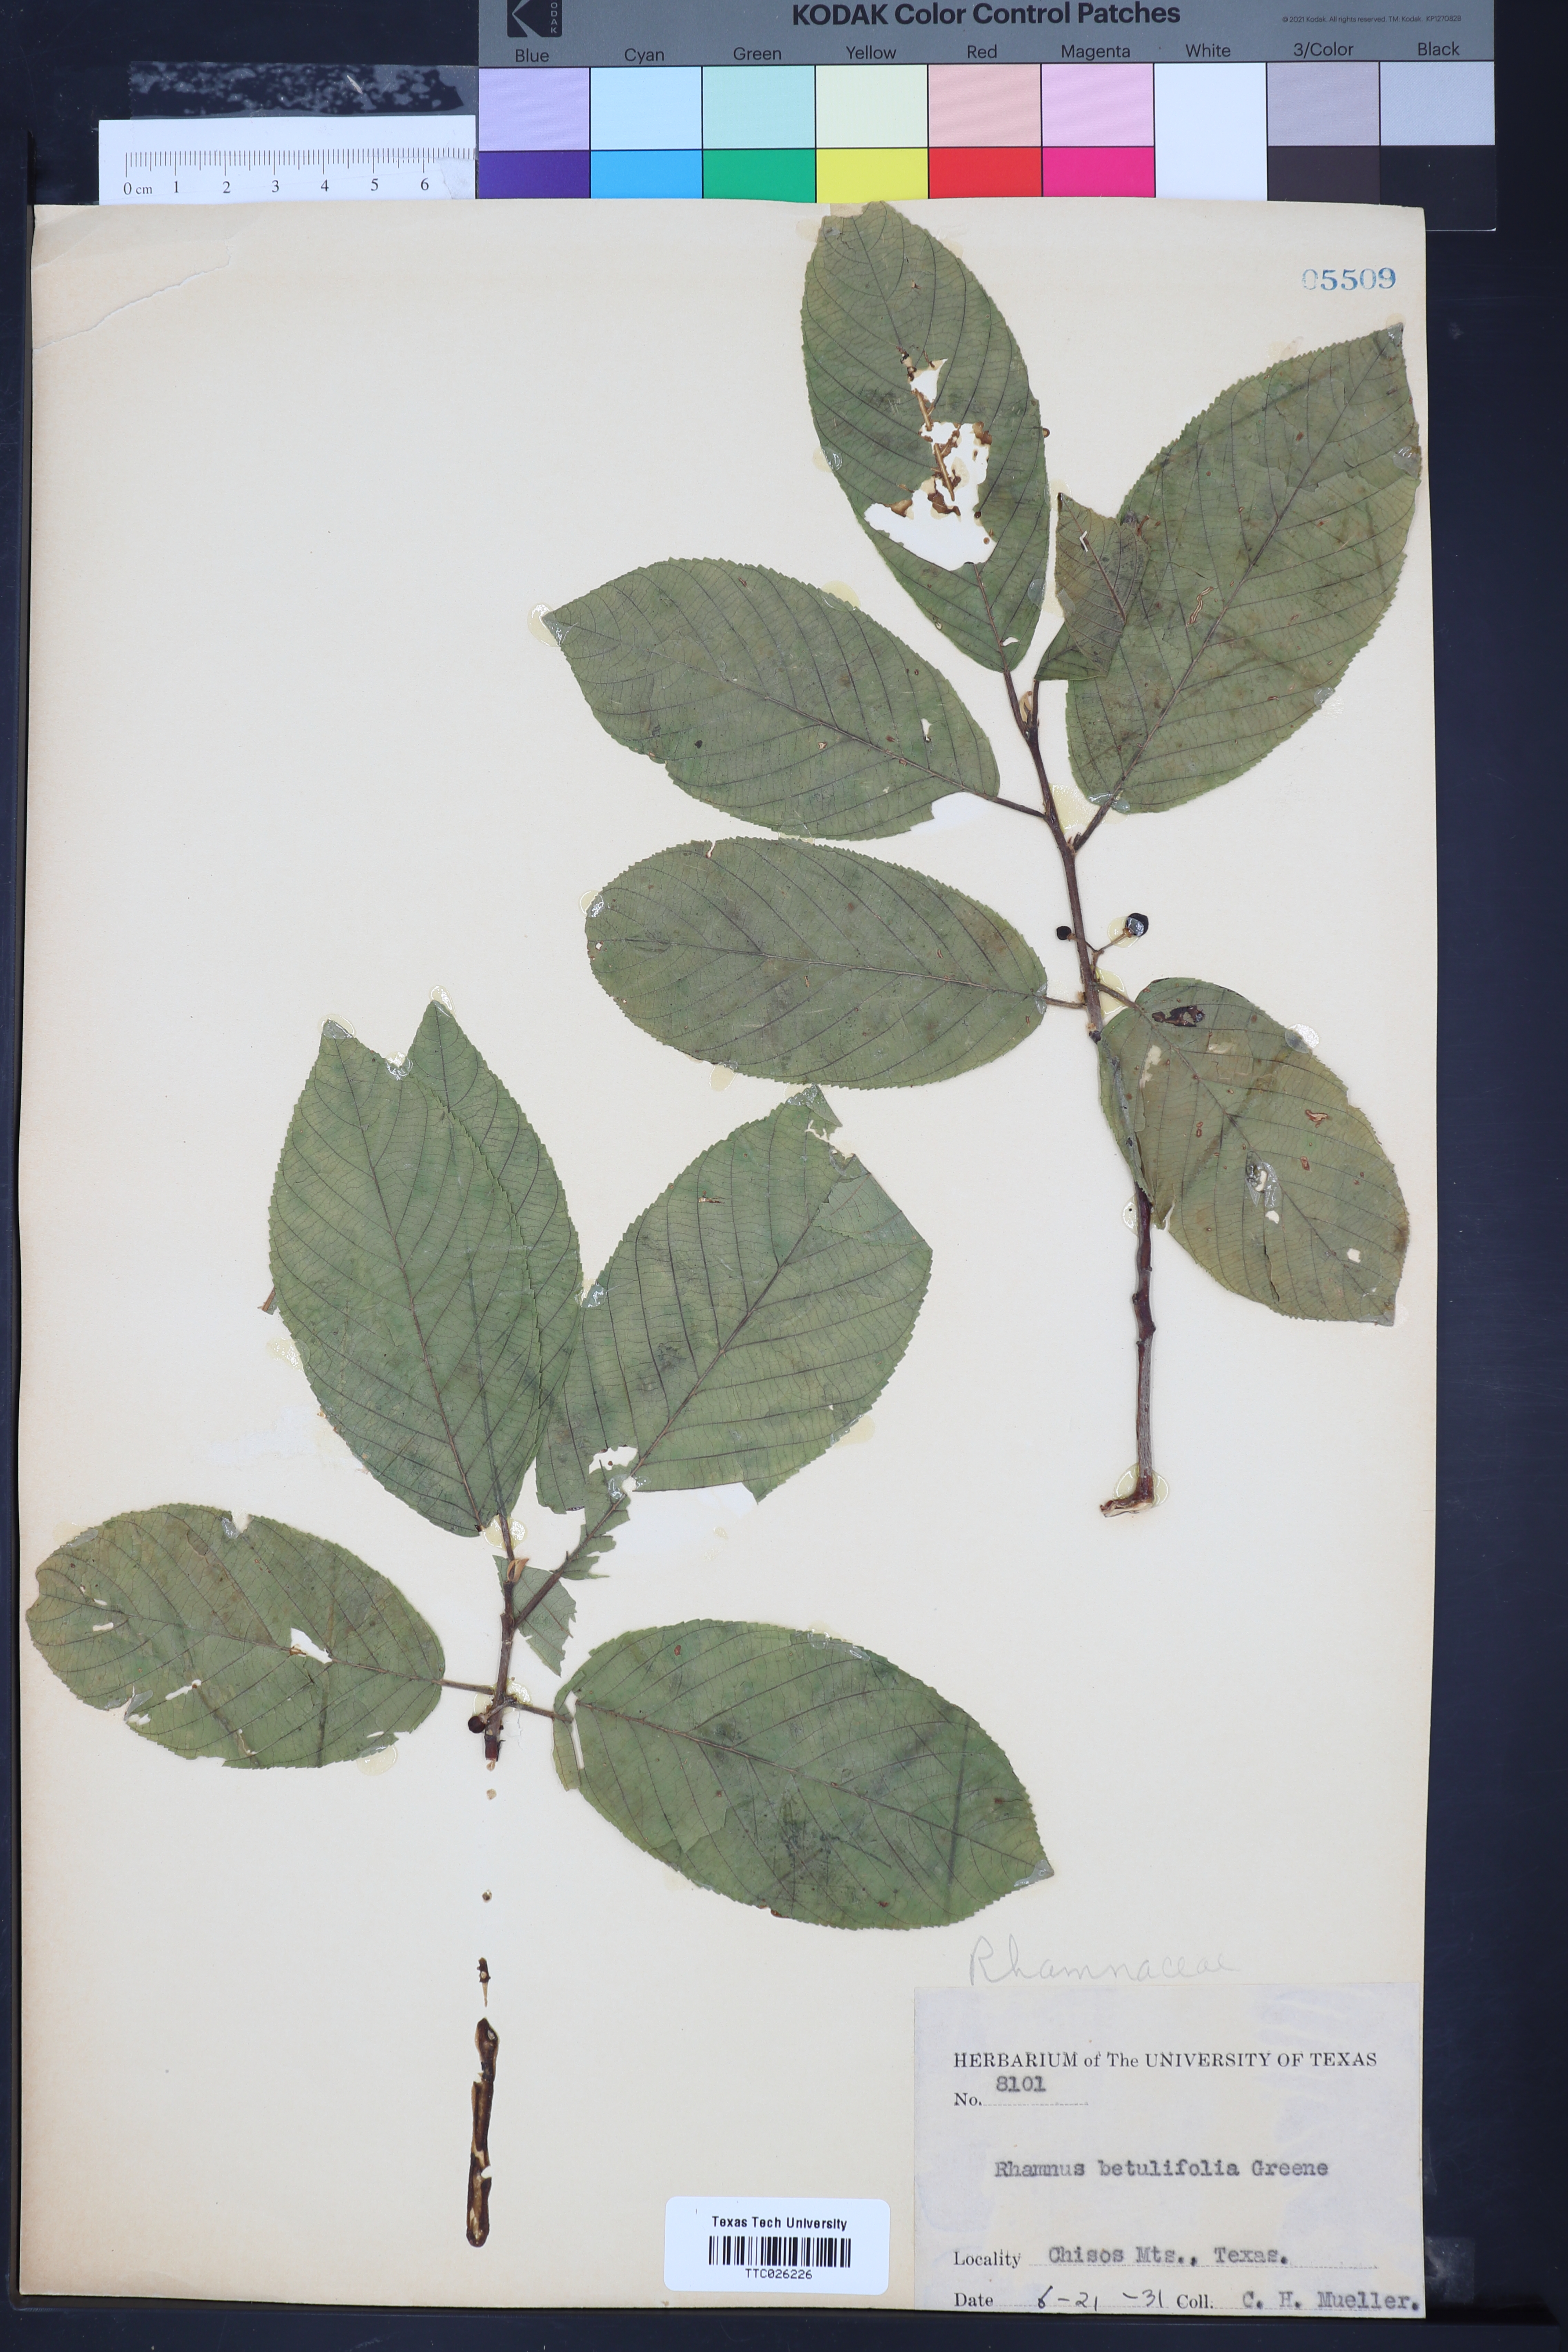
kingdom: Plantae
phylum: Tracheophyta
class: Magnoliopsida
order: Rosales
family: Rhamnaceae
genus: Frangula
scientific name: Frangula betulifolia
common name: Birch-leaf buckthorn
